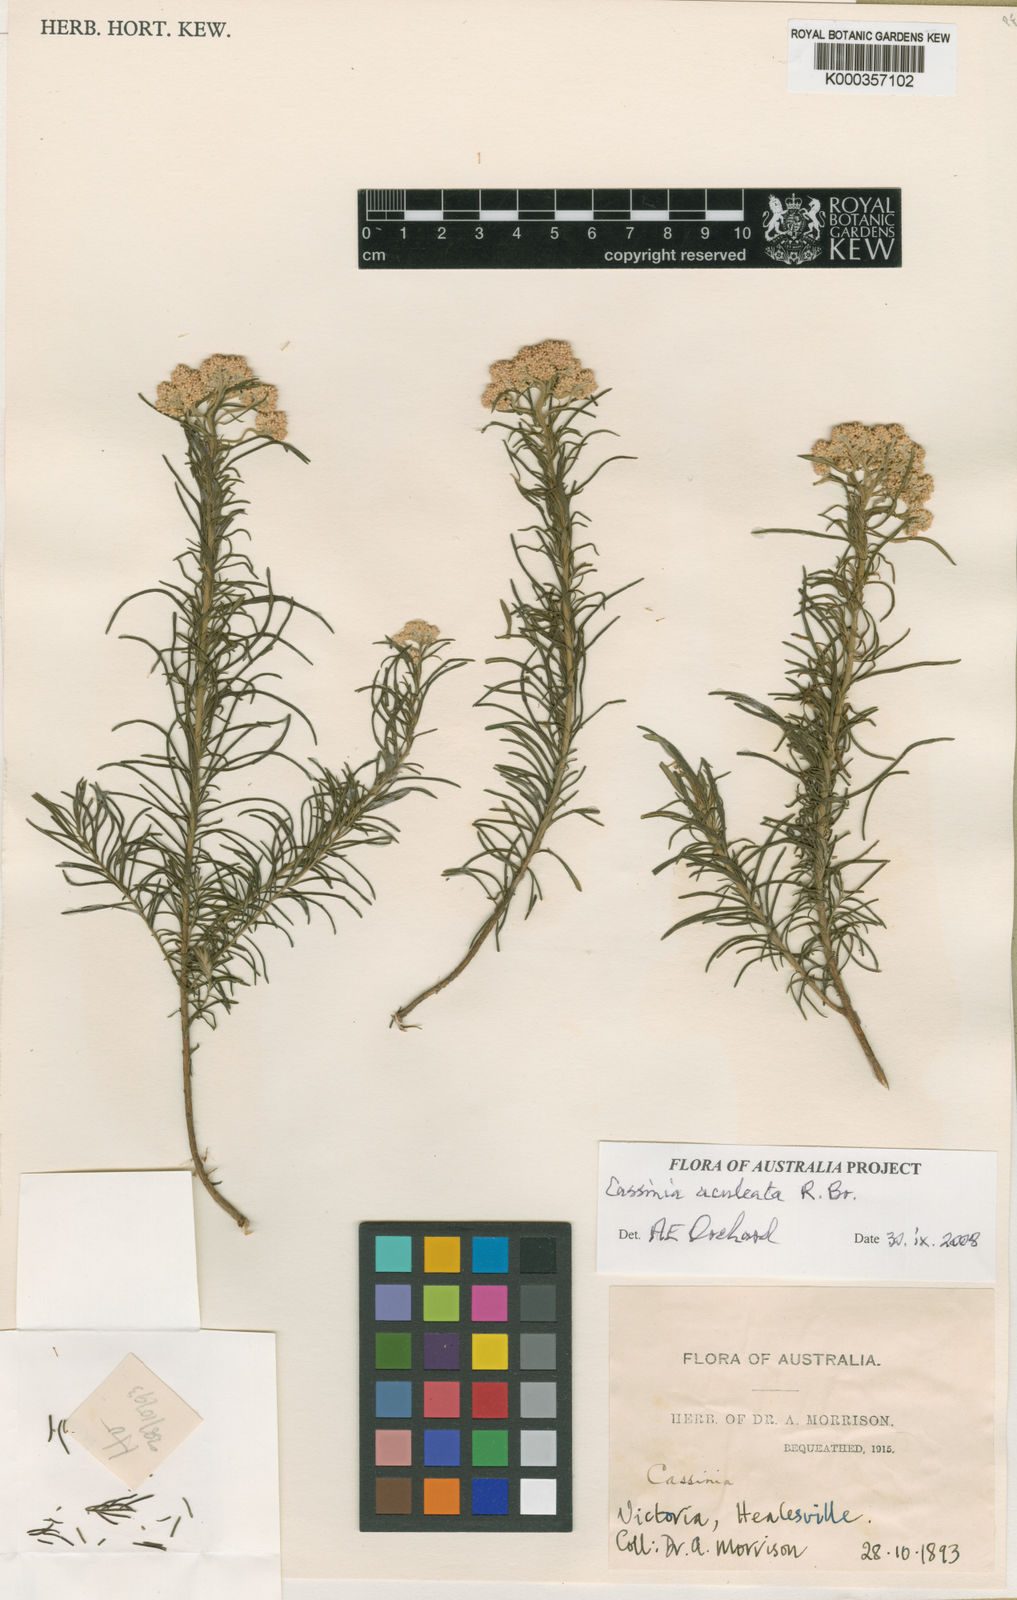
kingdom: Plantae
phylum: Tracheophyta
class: Magnoliopsida
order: Asterales
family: Asteraceae
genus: Cassinia
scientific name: Cassinia aculeata
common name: Australian tauhinu
